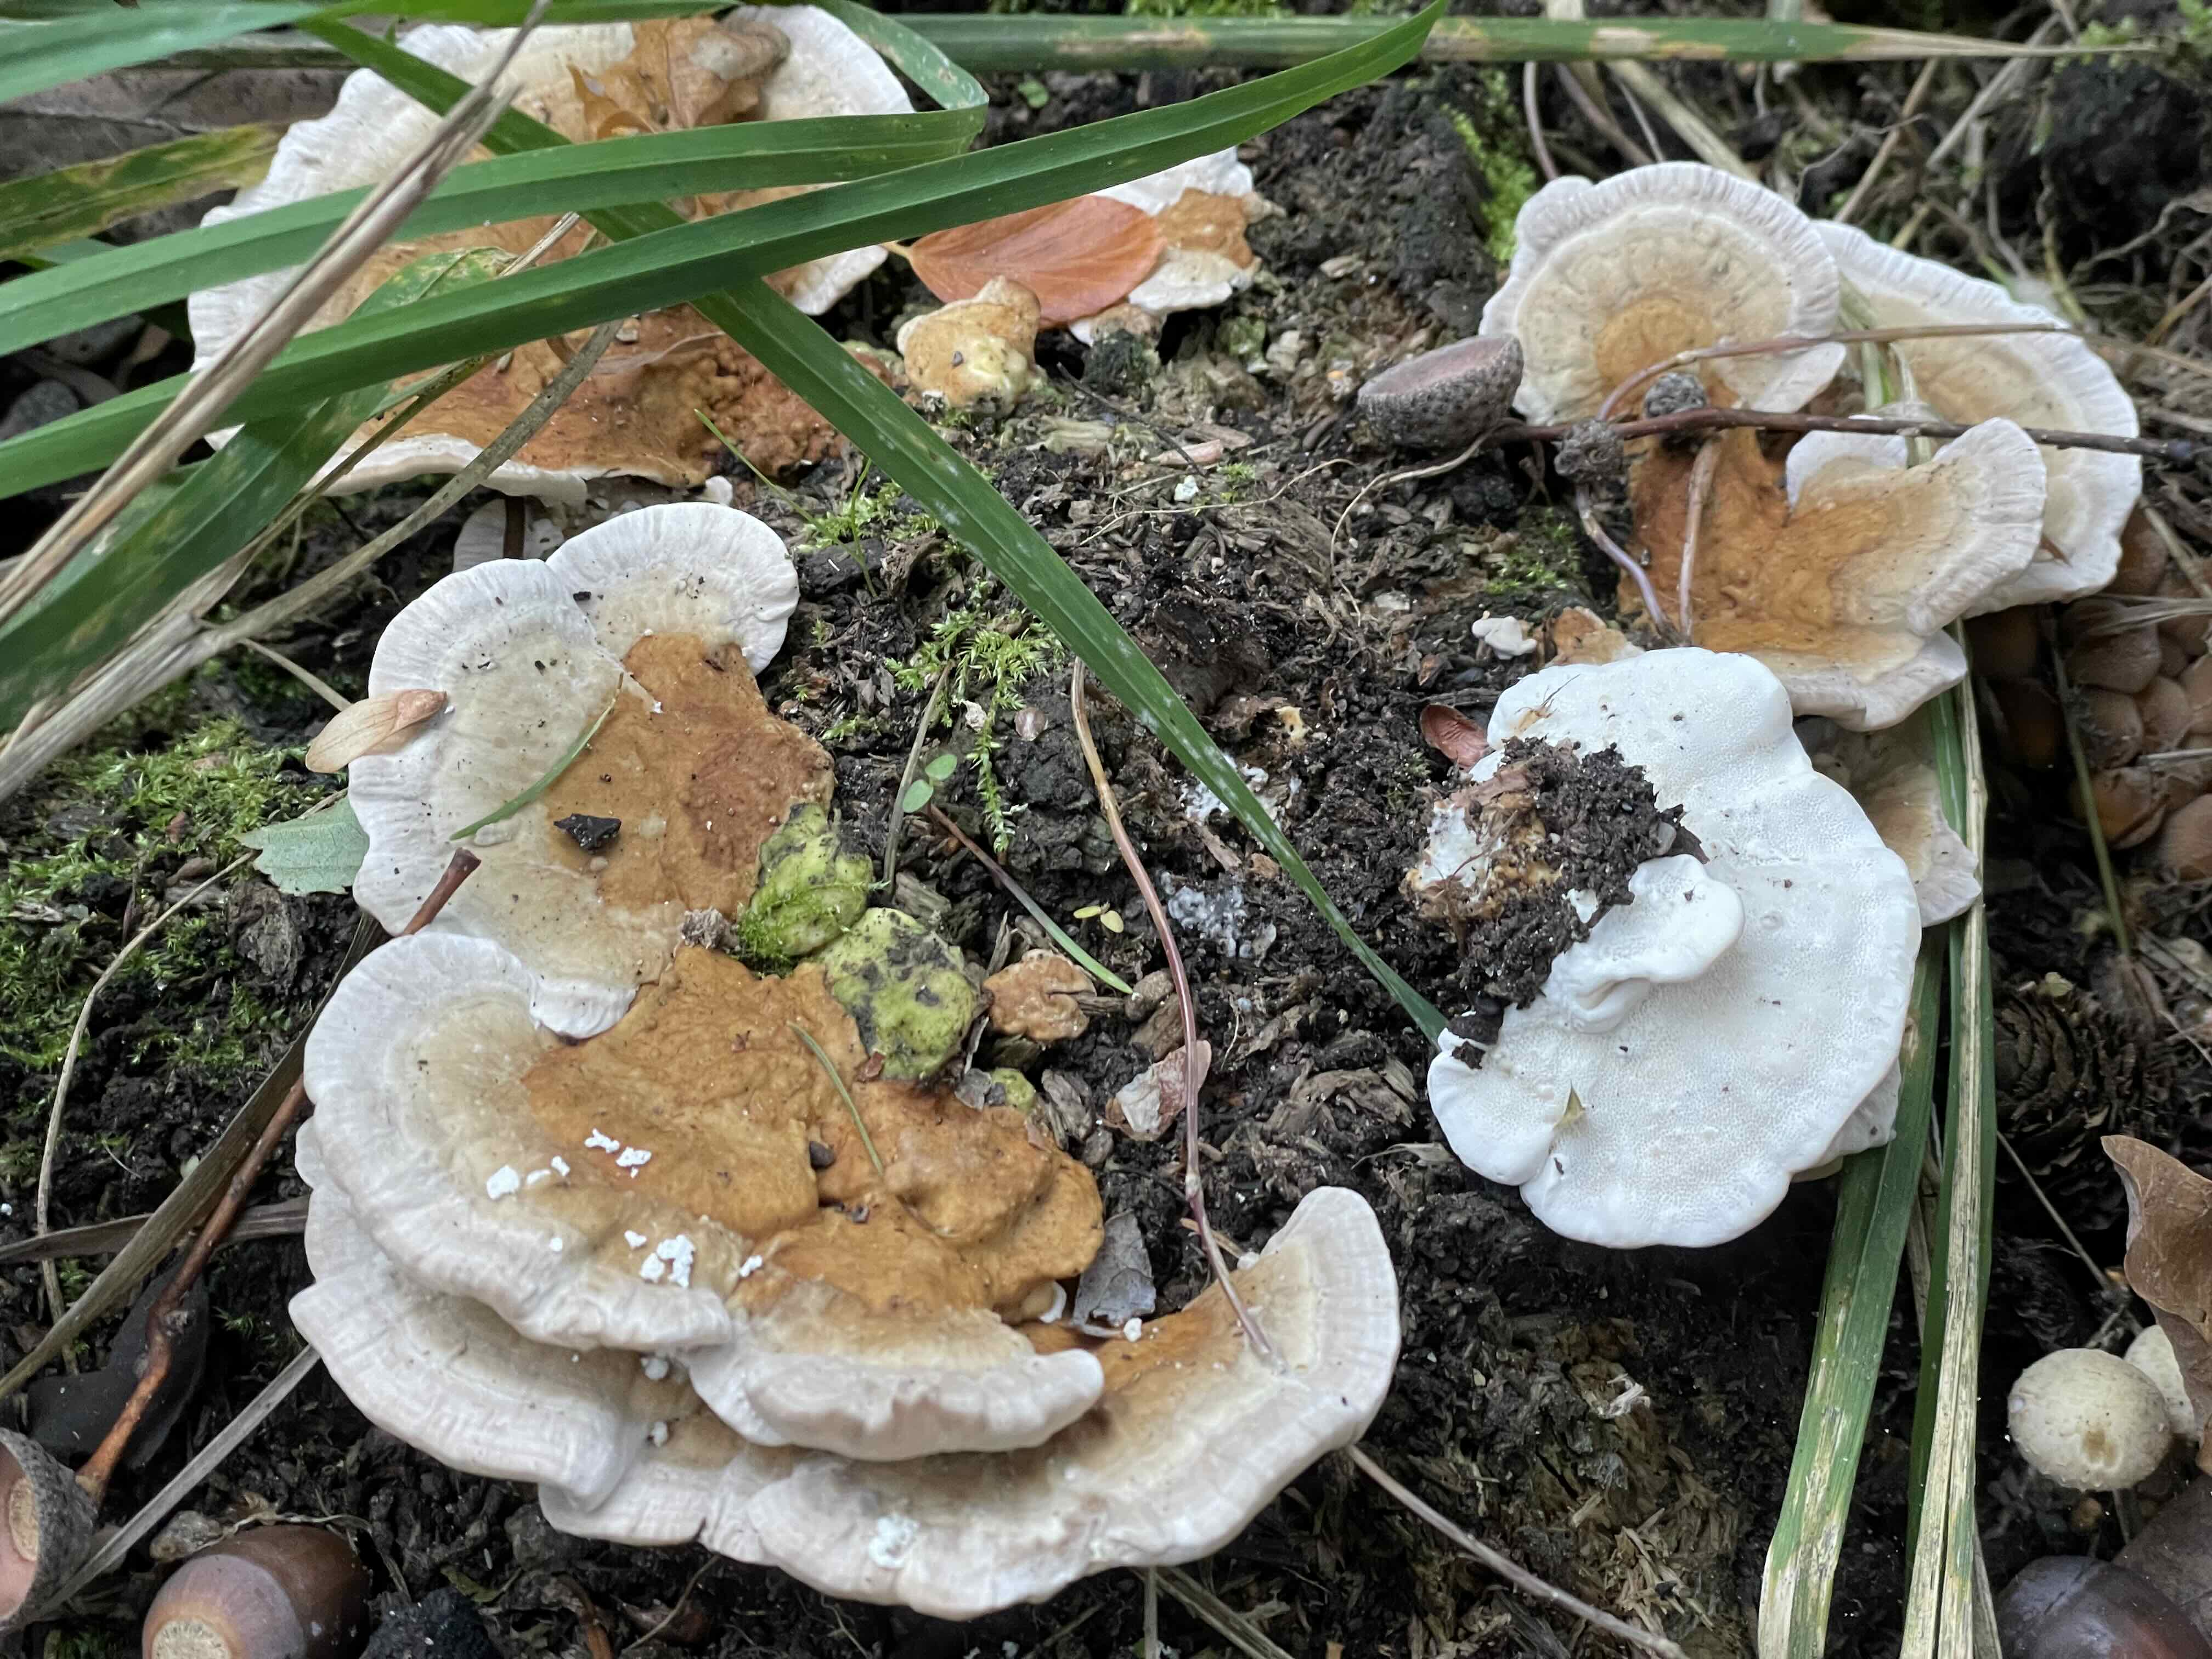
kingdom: Fungi
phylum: Basidiomycota
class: Agaricomycetes
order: Polyporales
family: Polyporaceae
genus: Trametes
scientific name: Trametes ochracea
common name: bæltet læderporesvamp
